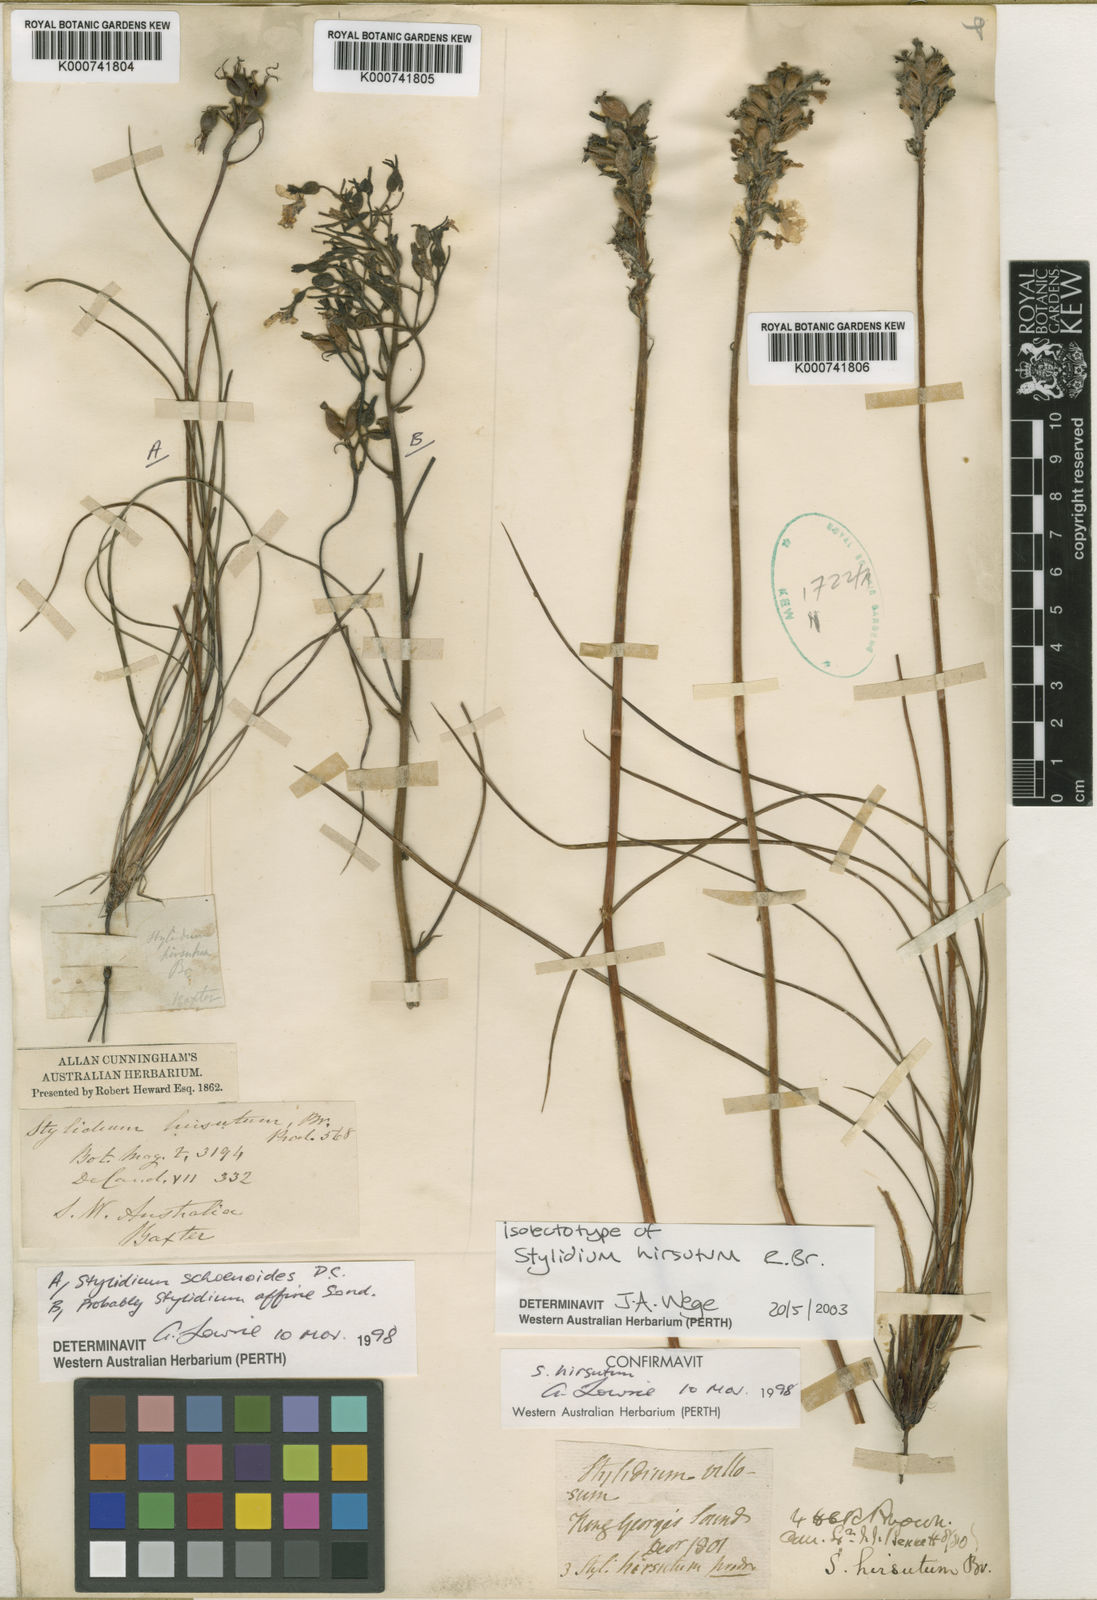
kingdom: Plantae
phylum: Tracheophyta
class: Magnoliopsida
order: Asterales
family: Stylidiaceae
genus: Stylidium
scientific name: Stylidium hirsutum
